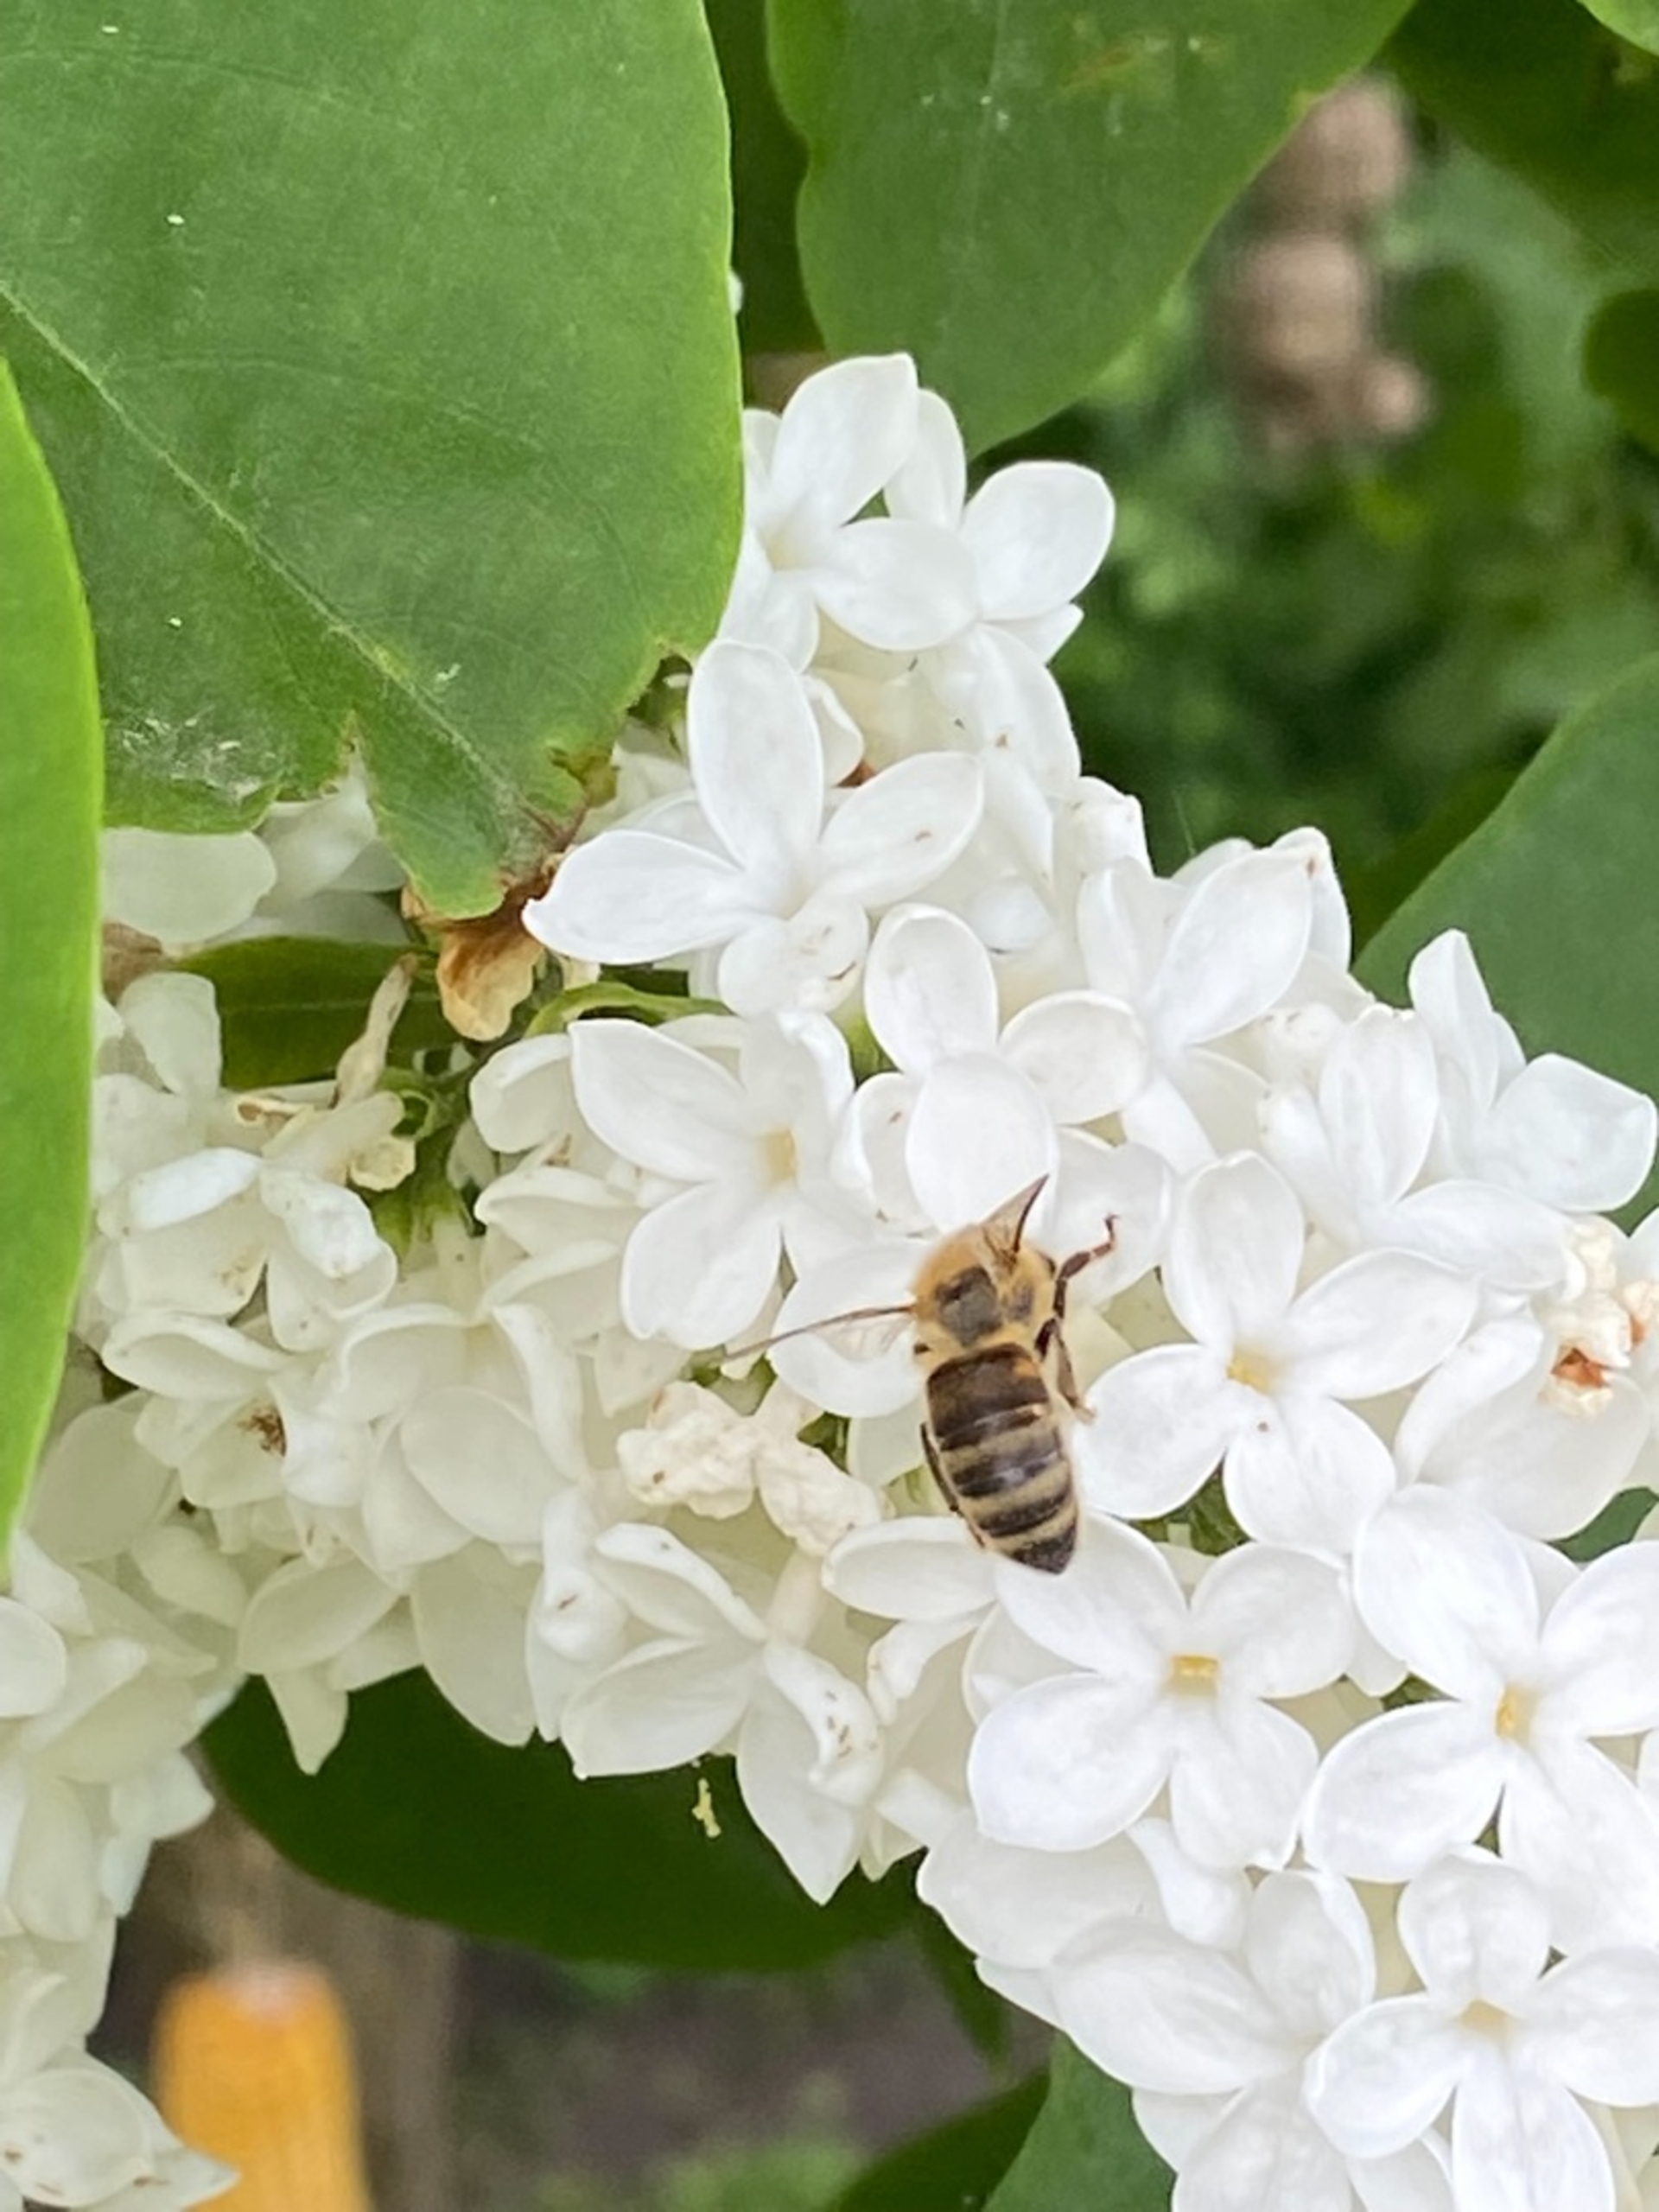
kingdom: Animalia
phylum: Arthropoda
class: Insecta
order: Hymenoptera
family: Apidae
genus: Apis
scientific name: Apis
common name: Honningbier
